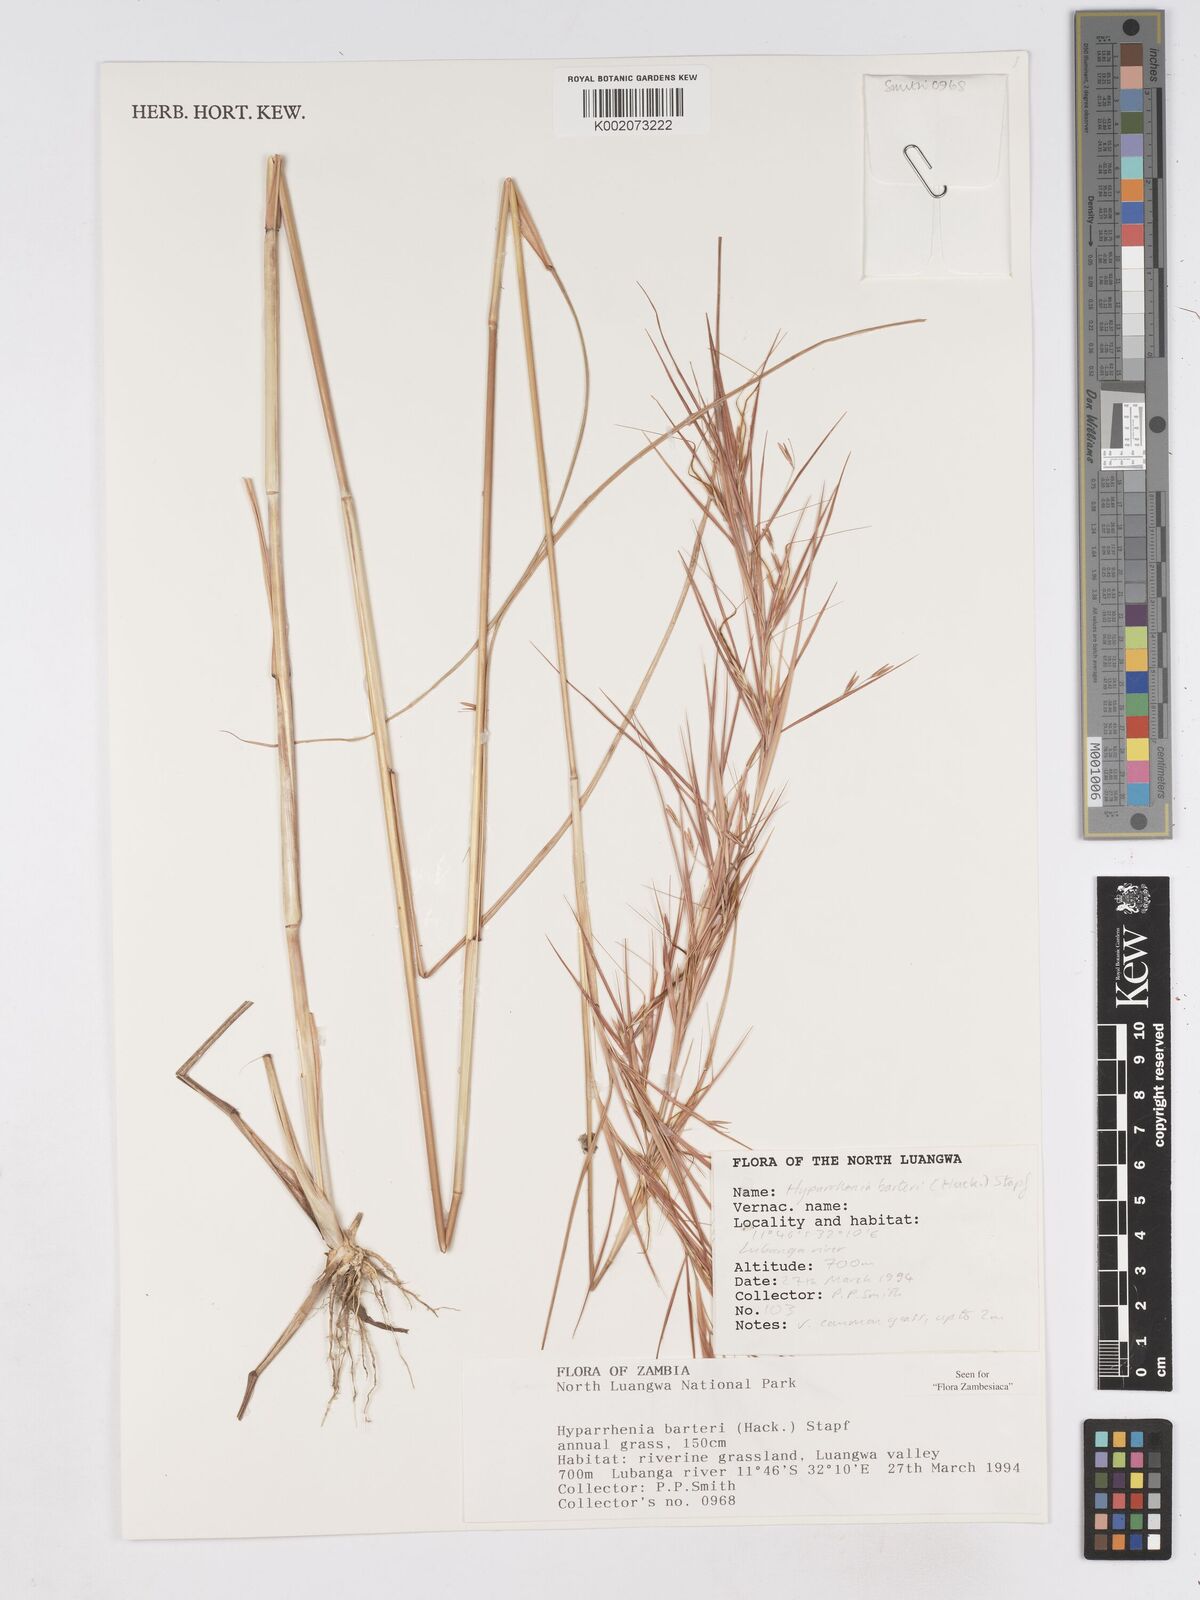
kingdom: Plantae
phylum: Tracheophyta
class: Liliopsida
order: Poales
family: Poaceae
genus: Hyparrhenia
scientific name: Hyparrhenia barteri
